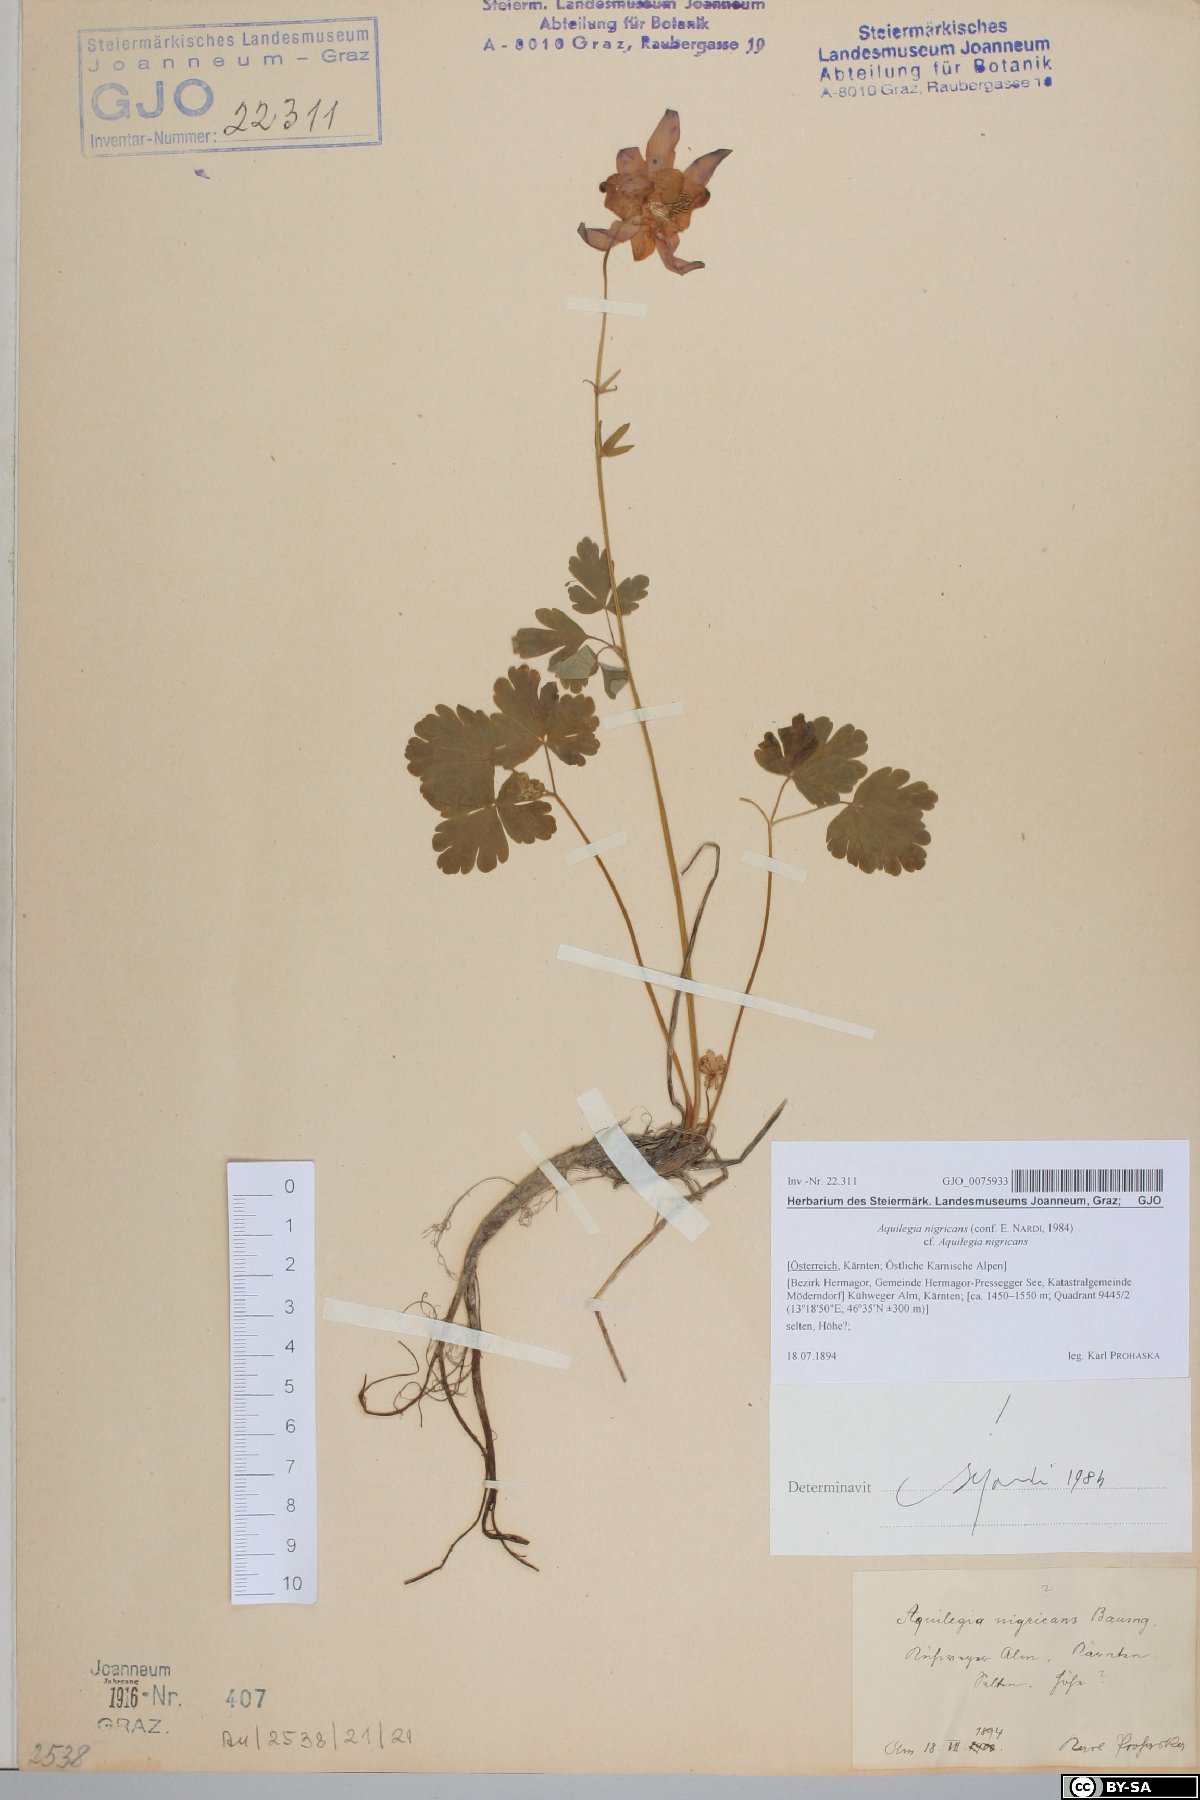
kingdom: Plantae
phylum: Tracheophyta
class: Magnoliopsida
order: Ranunculales
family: Ranunculaceae
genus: Aquilegia
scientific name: Aquilegia nigricans
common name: Bulgarian columbine
